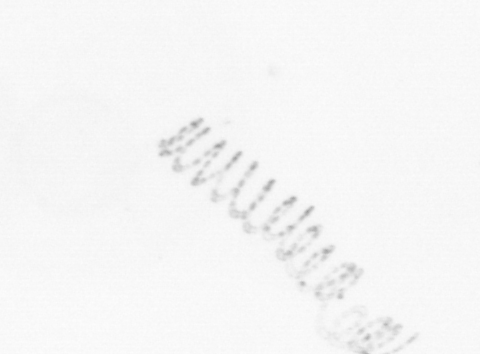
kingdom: Chromista
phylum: Ochrophyta
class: Bacillariophyceae
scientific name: Bacillariophyceae
